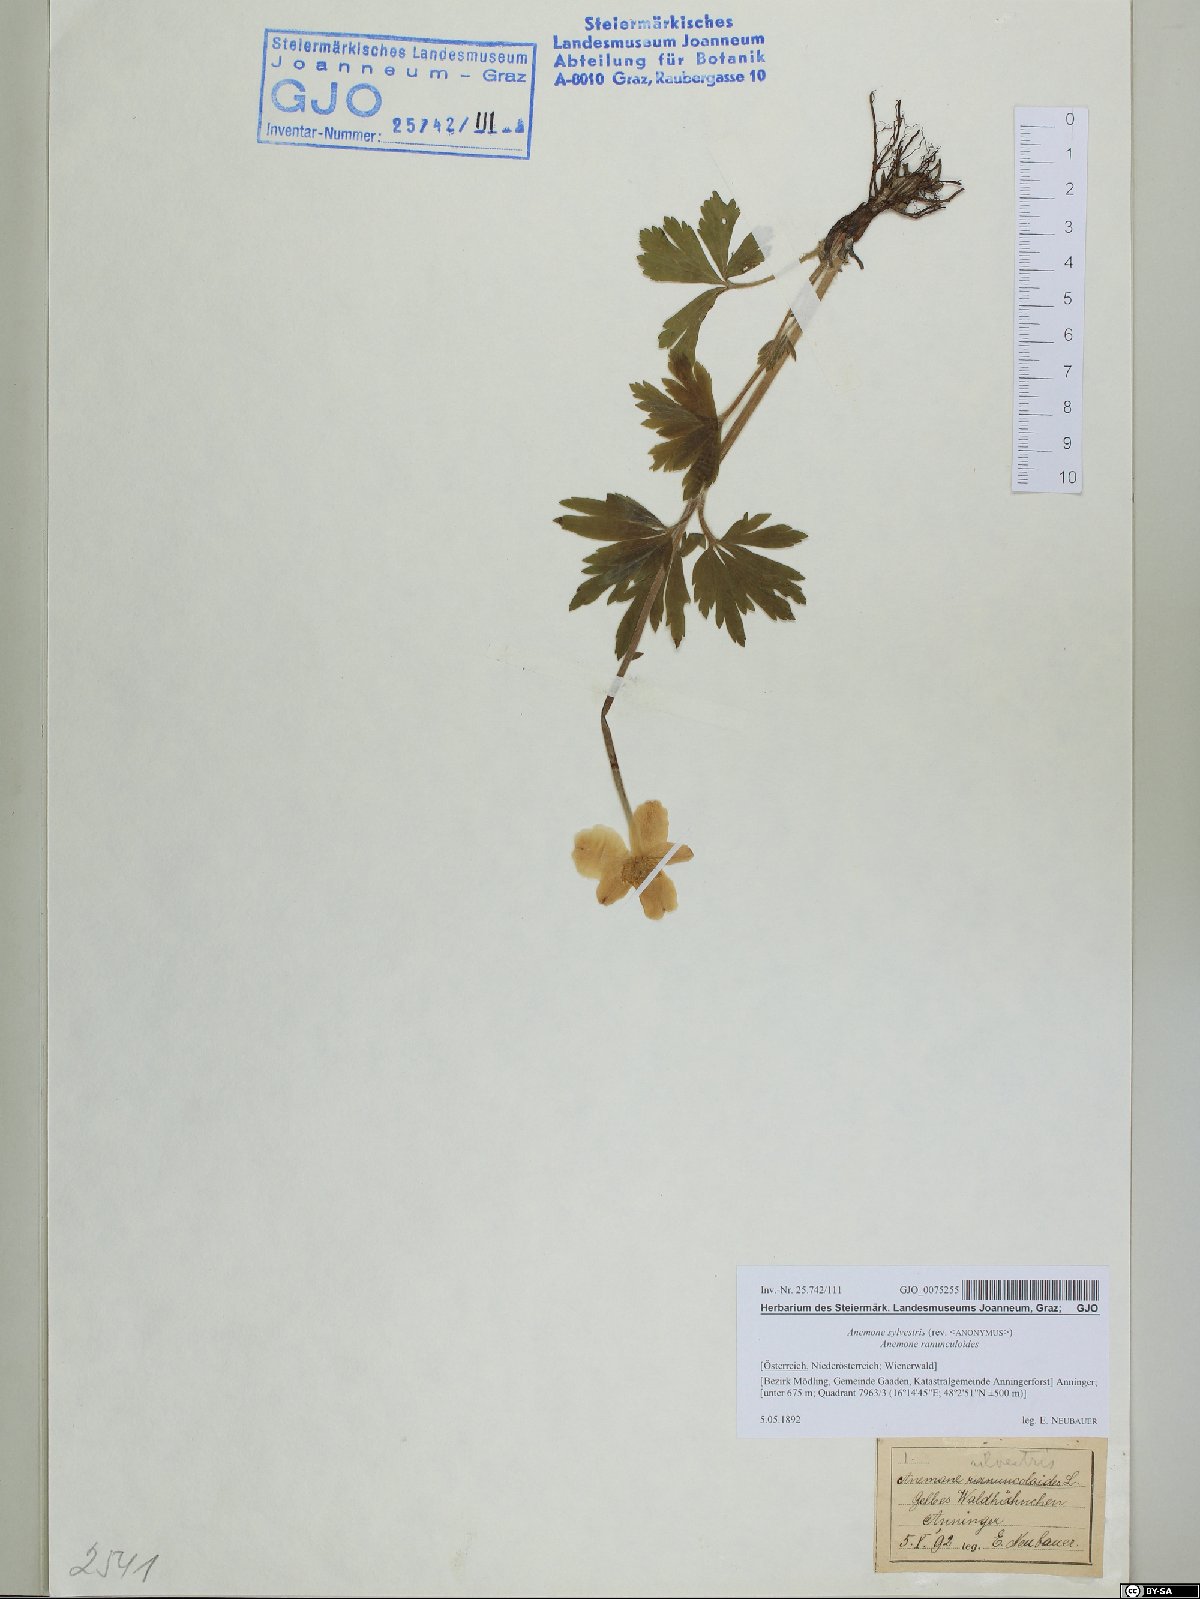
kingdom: Plantae
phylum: Tracheophyta
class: Magnoliopsida
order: Ranunculales
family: Ranunculaceae
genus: Anemone
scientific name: Anemone sylvestris
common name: Snowdrop anemone
